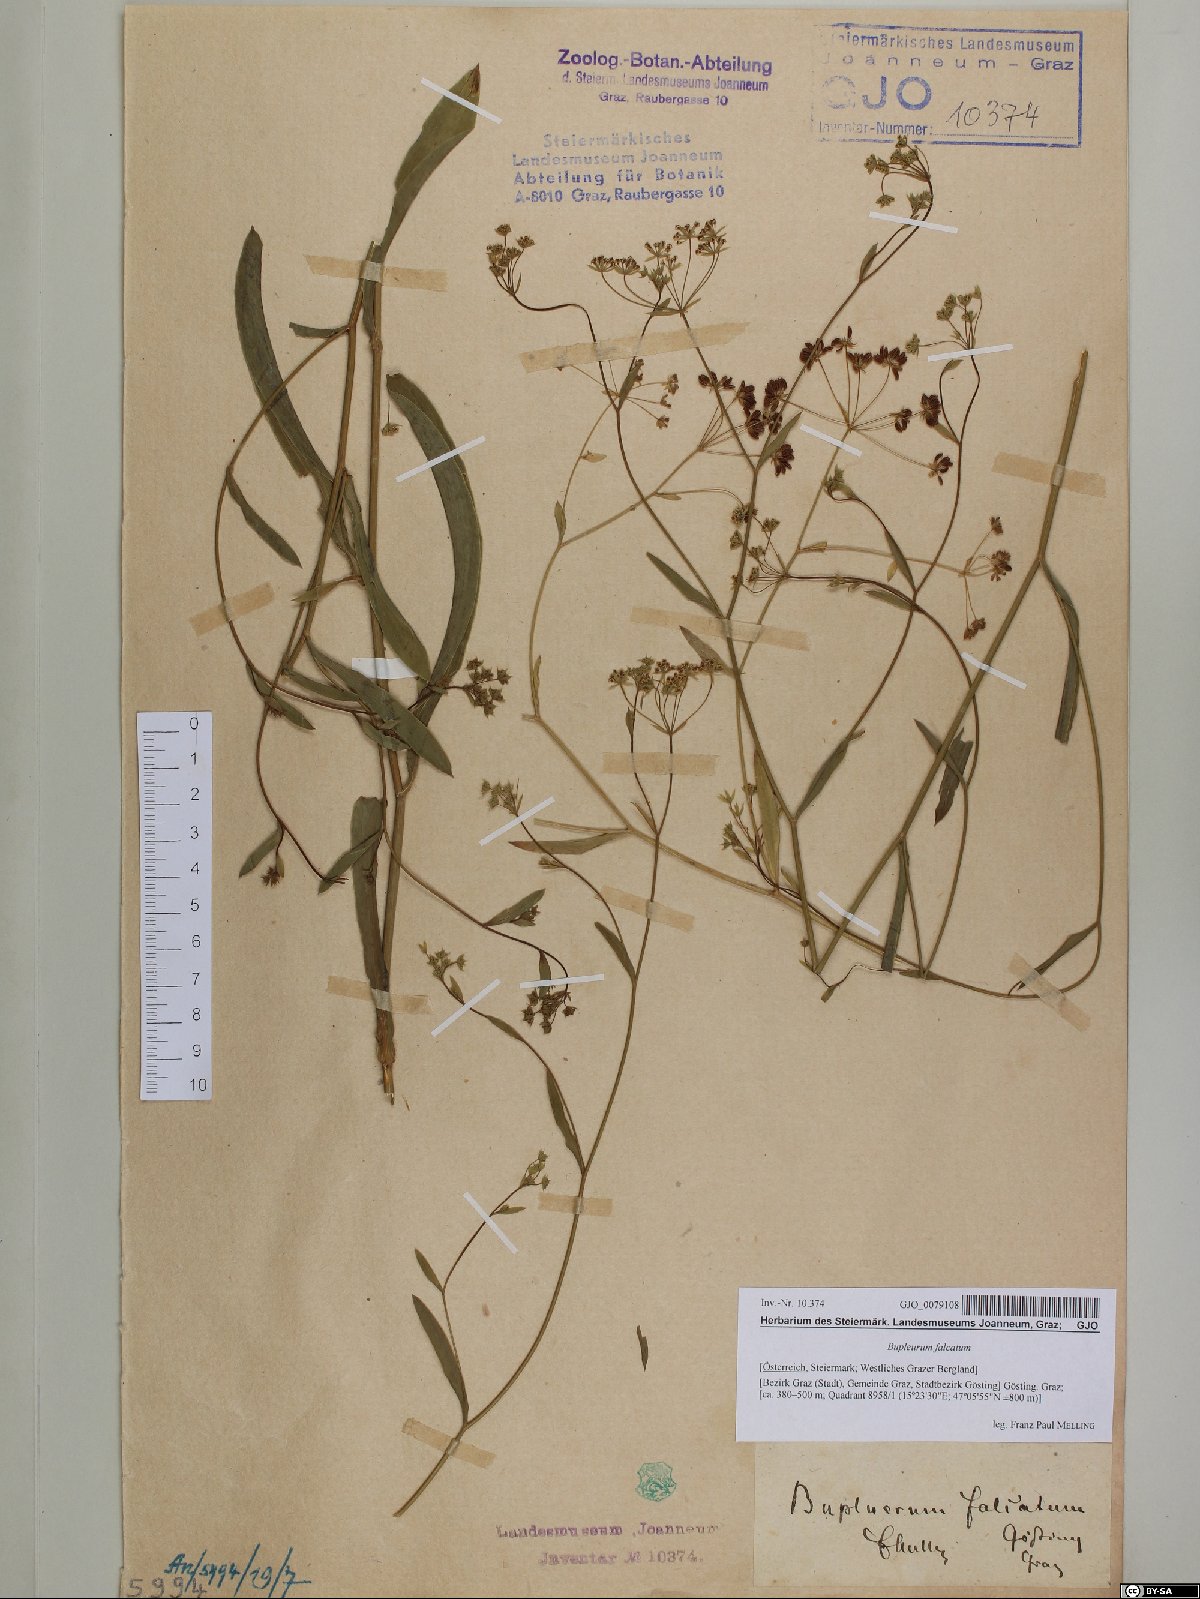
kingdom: Plantae
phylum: Tracheophyta
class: Magnoliopsida
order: Apiales
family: Apiaceae
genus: Bupleurum
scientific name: Bupleurum falcatum
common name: Sickle-leaved hare's-ear
